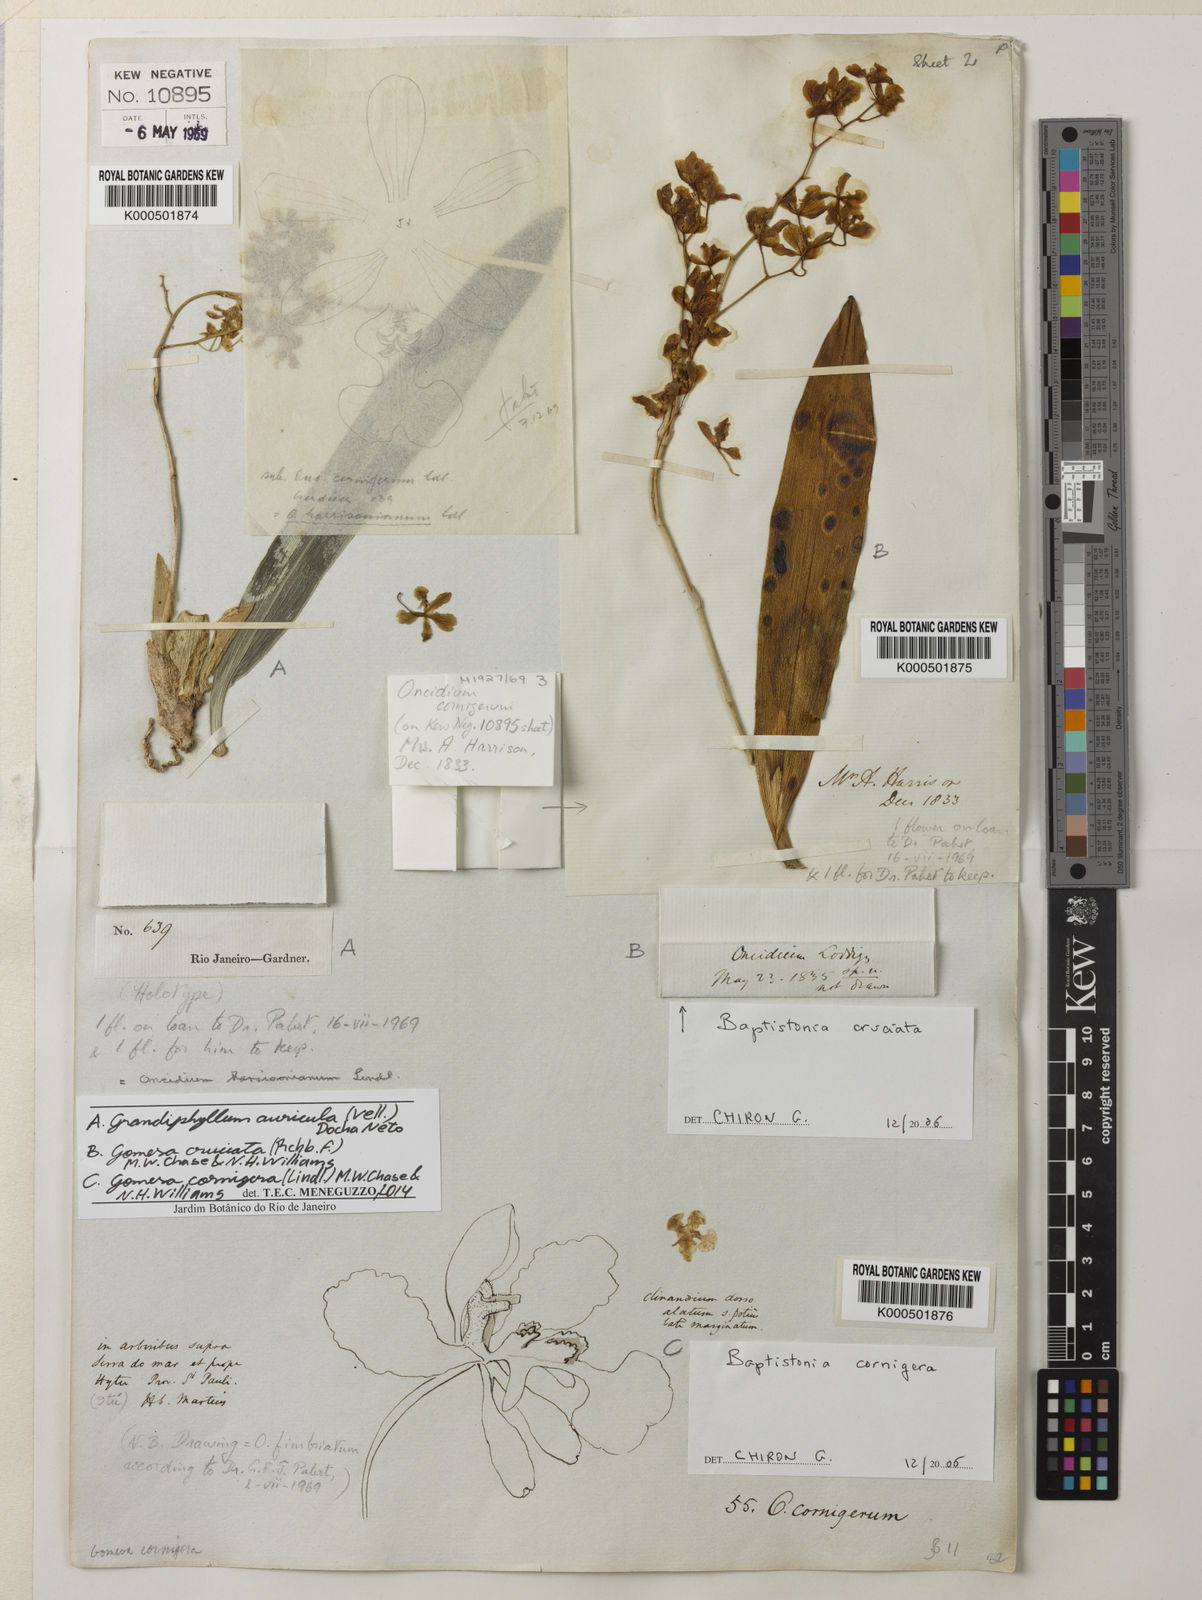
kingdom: Plantae
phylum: Tracheophyta
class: Liliopsida
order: Asparagales
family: Orchidaceae
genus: Grandiphyllum
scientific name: Grandiphyllum auricula
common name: Mule-ear orchid
